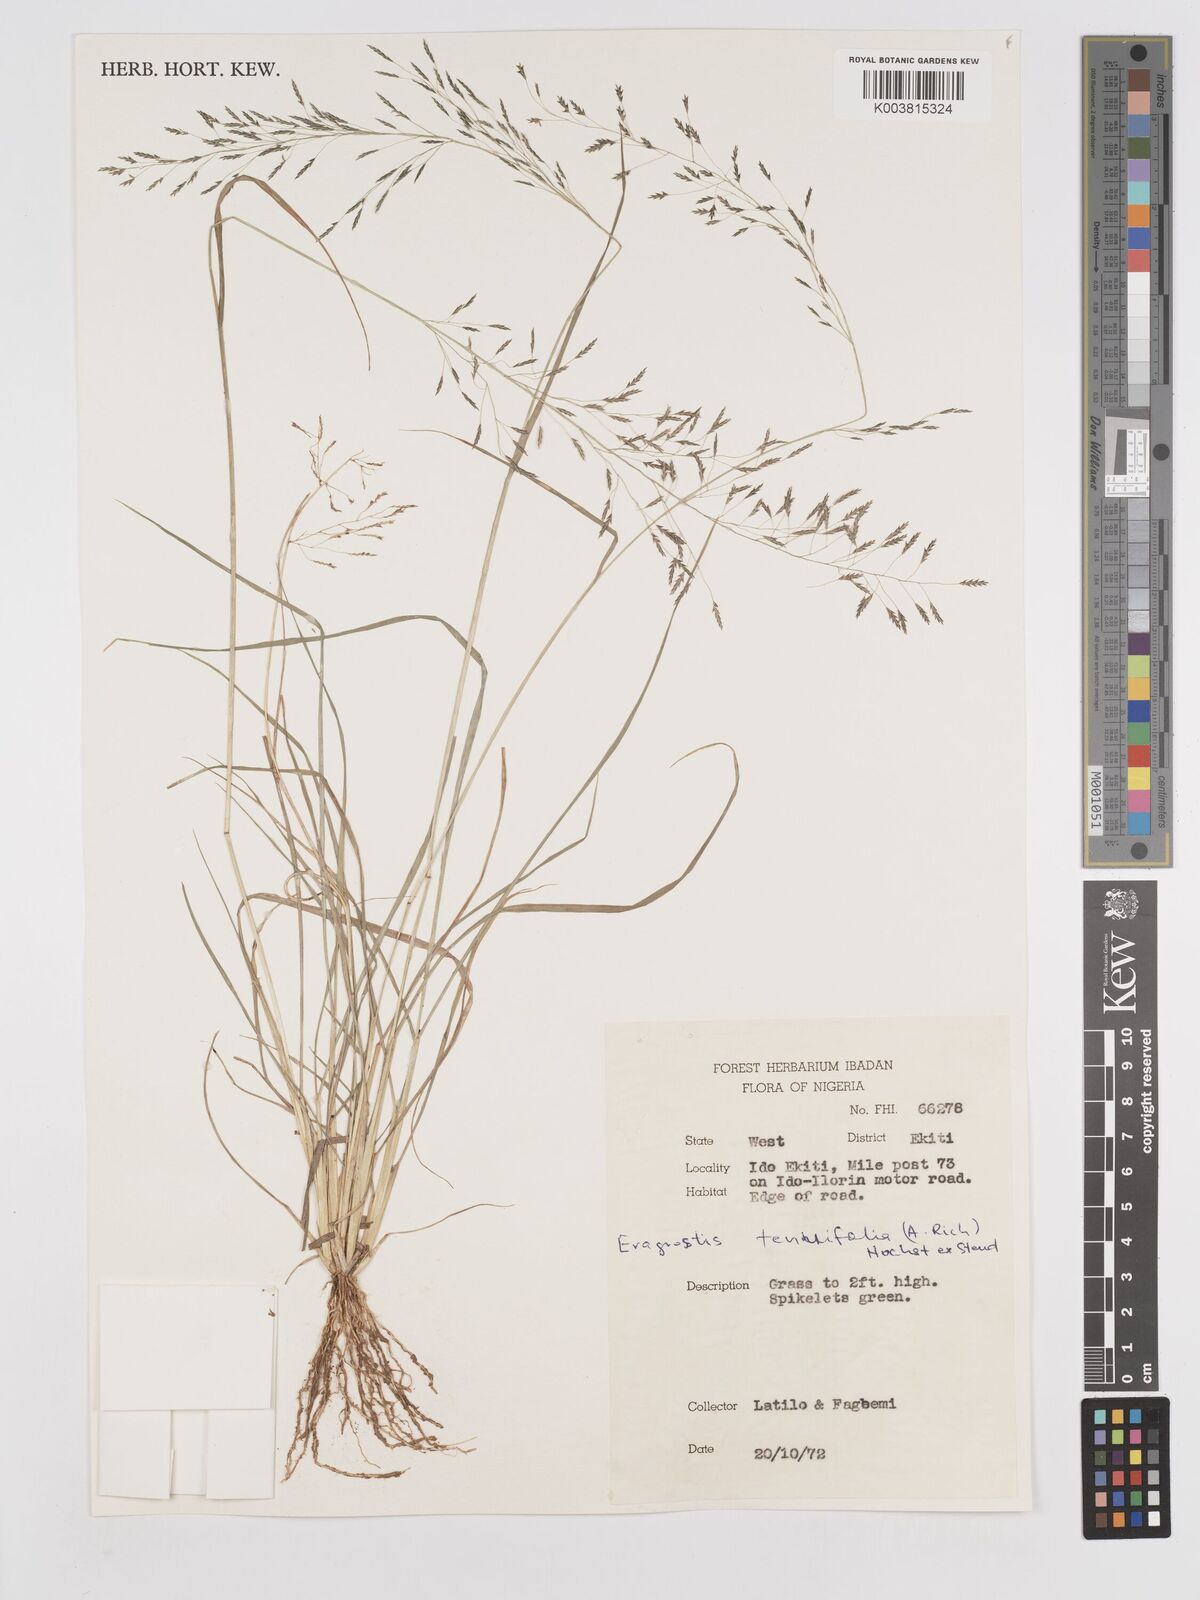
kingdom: Plantae
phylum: Tracheophyta
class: Liliopsida
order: Poales
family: Poaceae
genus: Eragrostis
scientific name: Eragrostis tenuifolia
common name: Elastic grass
